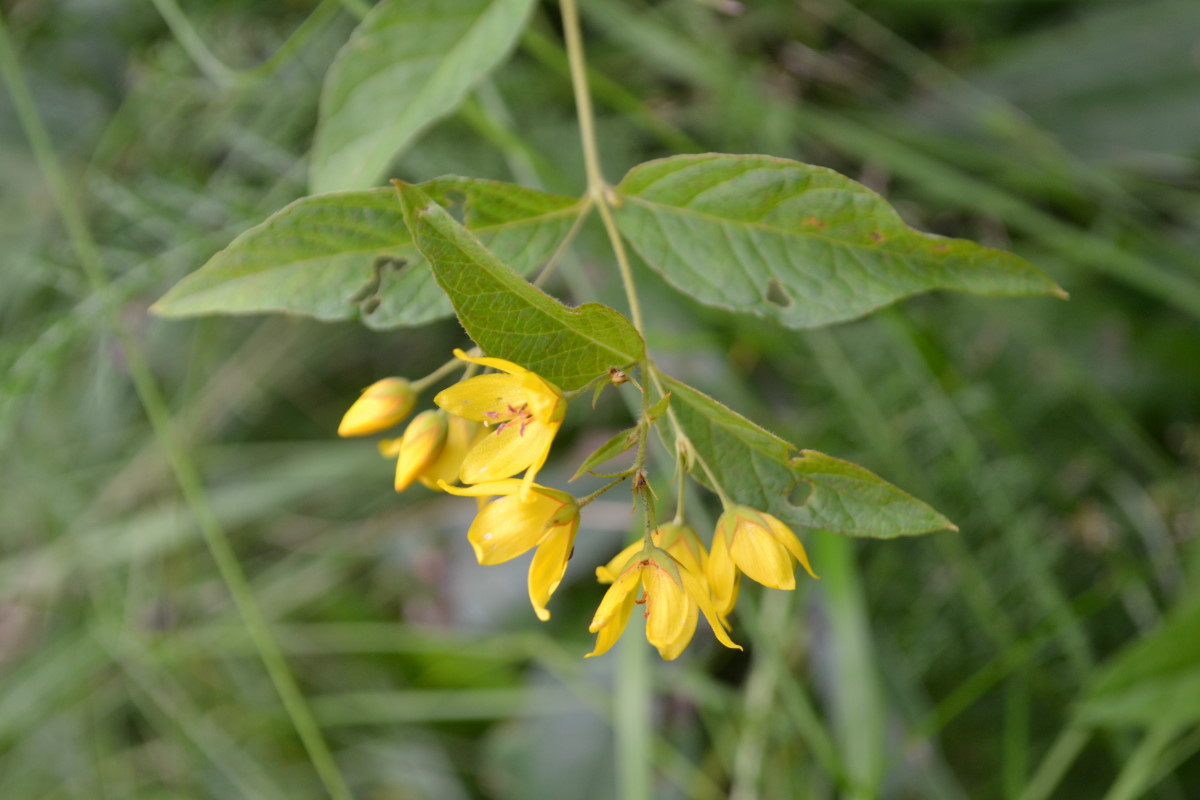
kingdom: Plantae
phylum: Tracheophyta
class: Magnoliopsida
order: Ericales
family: Primulaceae
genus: Lysimachia
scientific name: Lysimachia vulgaris
